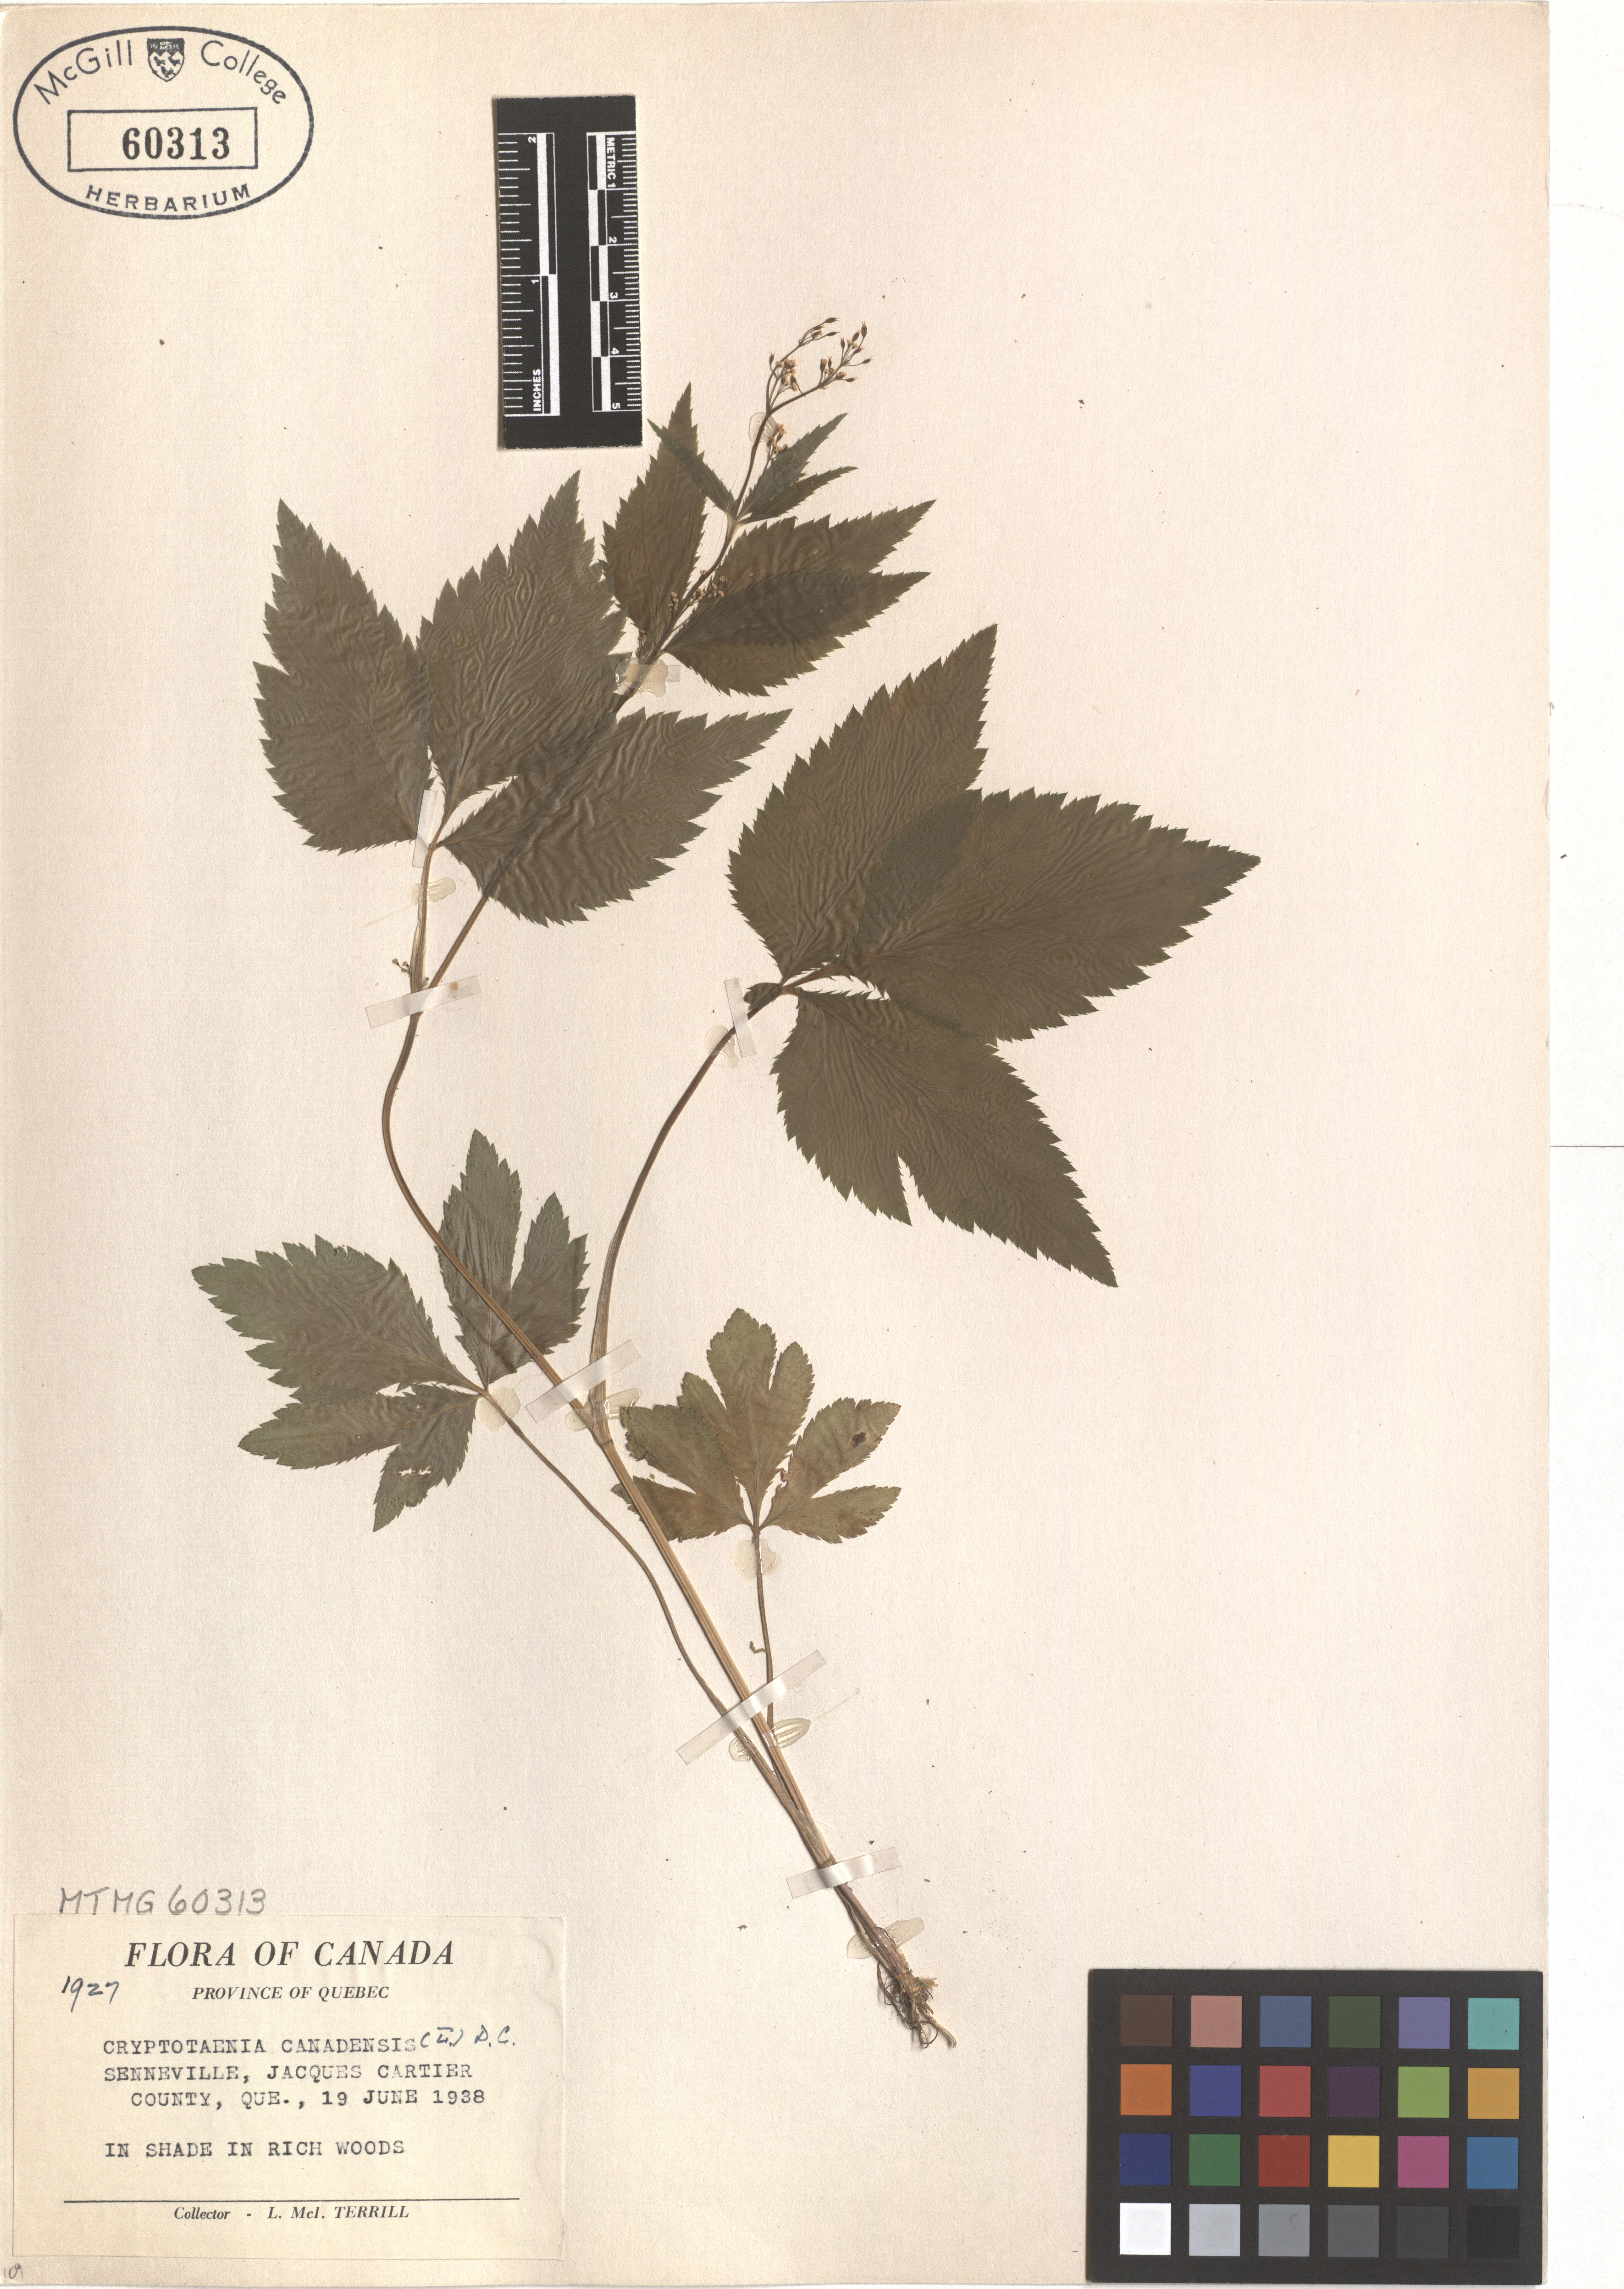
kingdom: Plantae
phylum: Tracheophyta
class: Magnoliopsida
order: Apiales
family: Apiaceae
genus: Cryptotaenia
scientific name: Cryptotaenia canadensis
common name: Honewort
